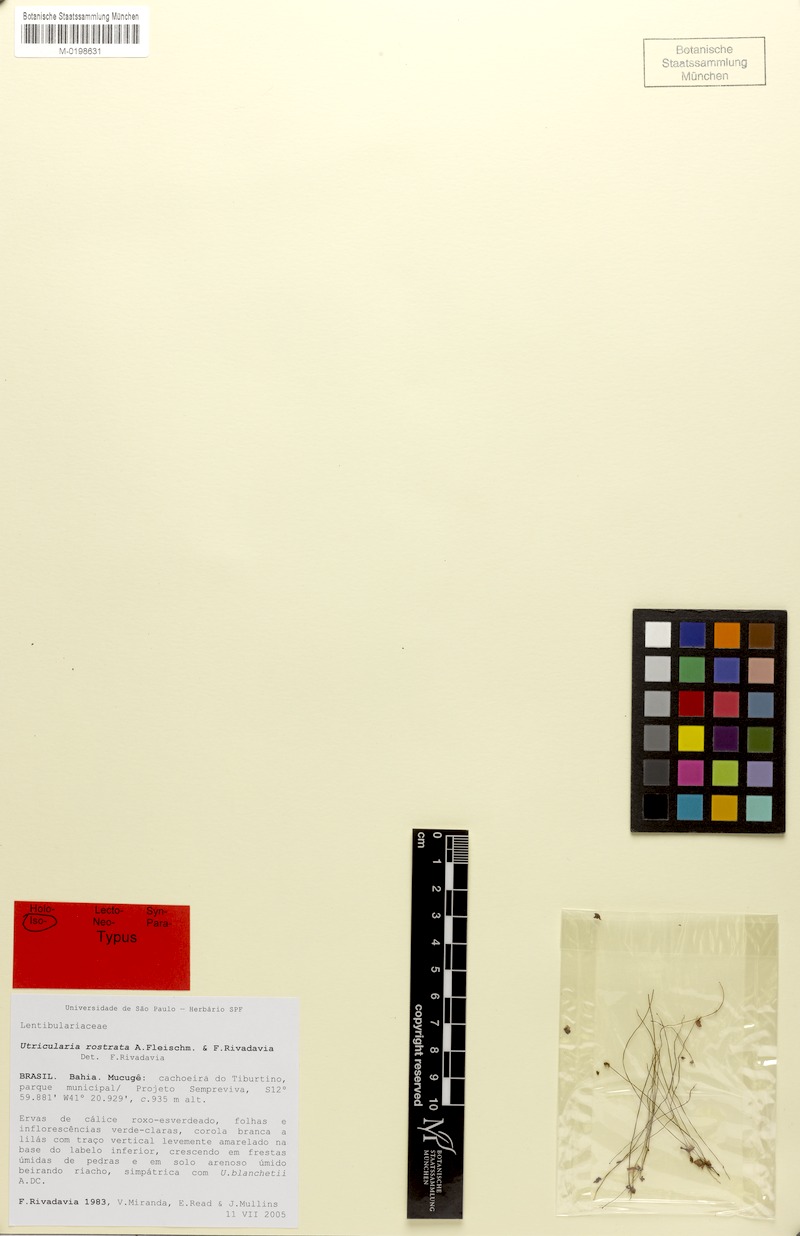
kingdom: Plantae
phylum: Tracheophyta
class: Magnoliopsida
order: Lamiales
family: Lentibulariaceae
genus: Utricularia
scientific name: Utricularia rostrata
